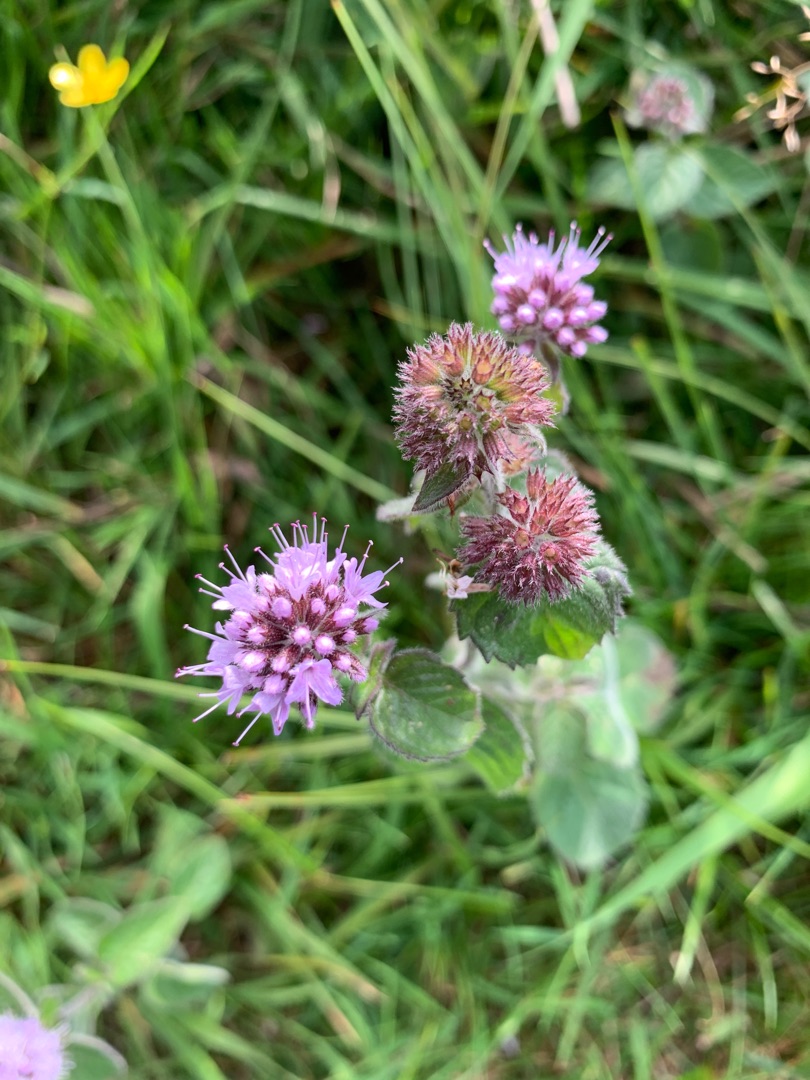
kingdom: Plantae
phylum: Tracheophyta
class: Magnoliopsida
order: Lamiales
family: Lamiaceae
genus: Mentha
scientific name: Mentha aquatica
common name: Vand-mynte
